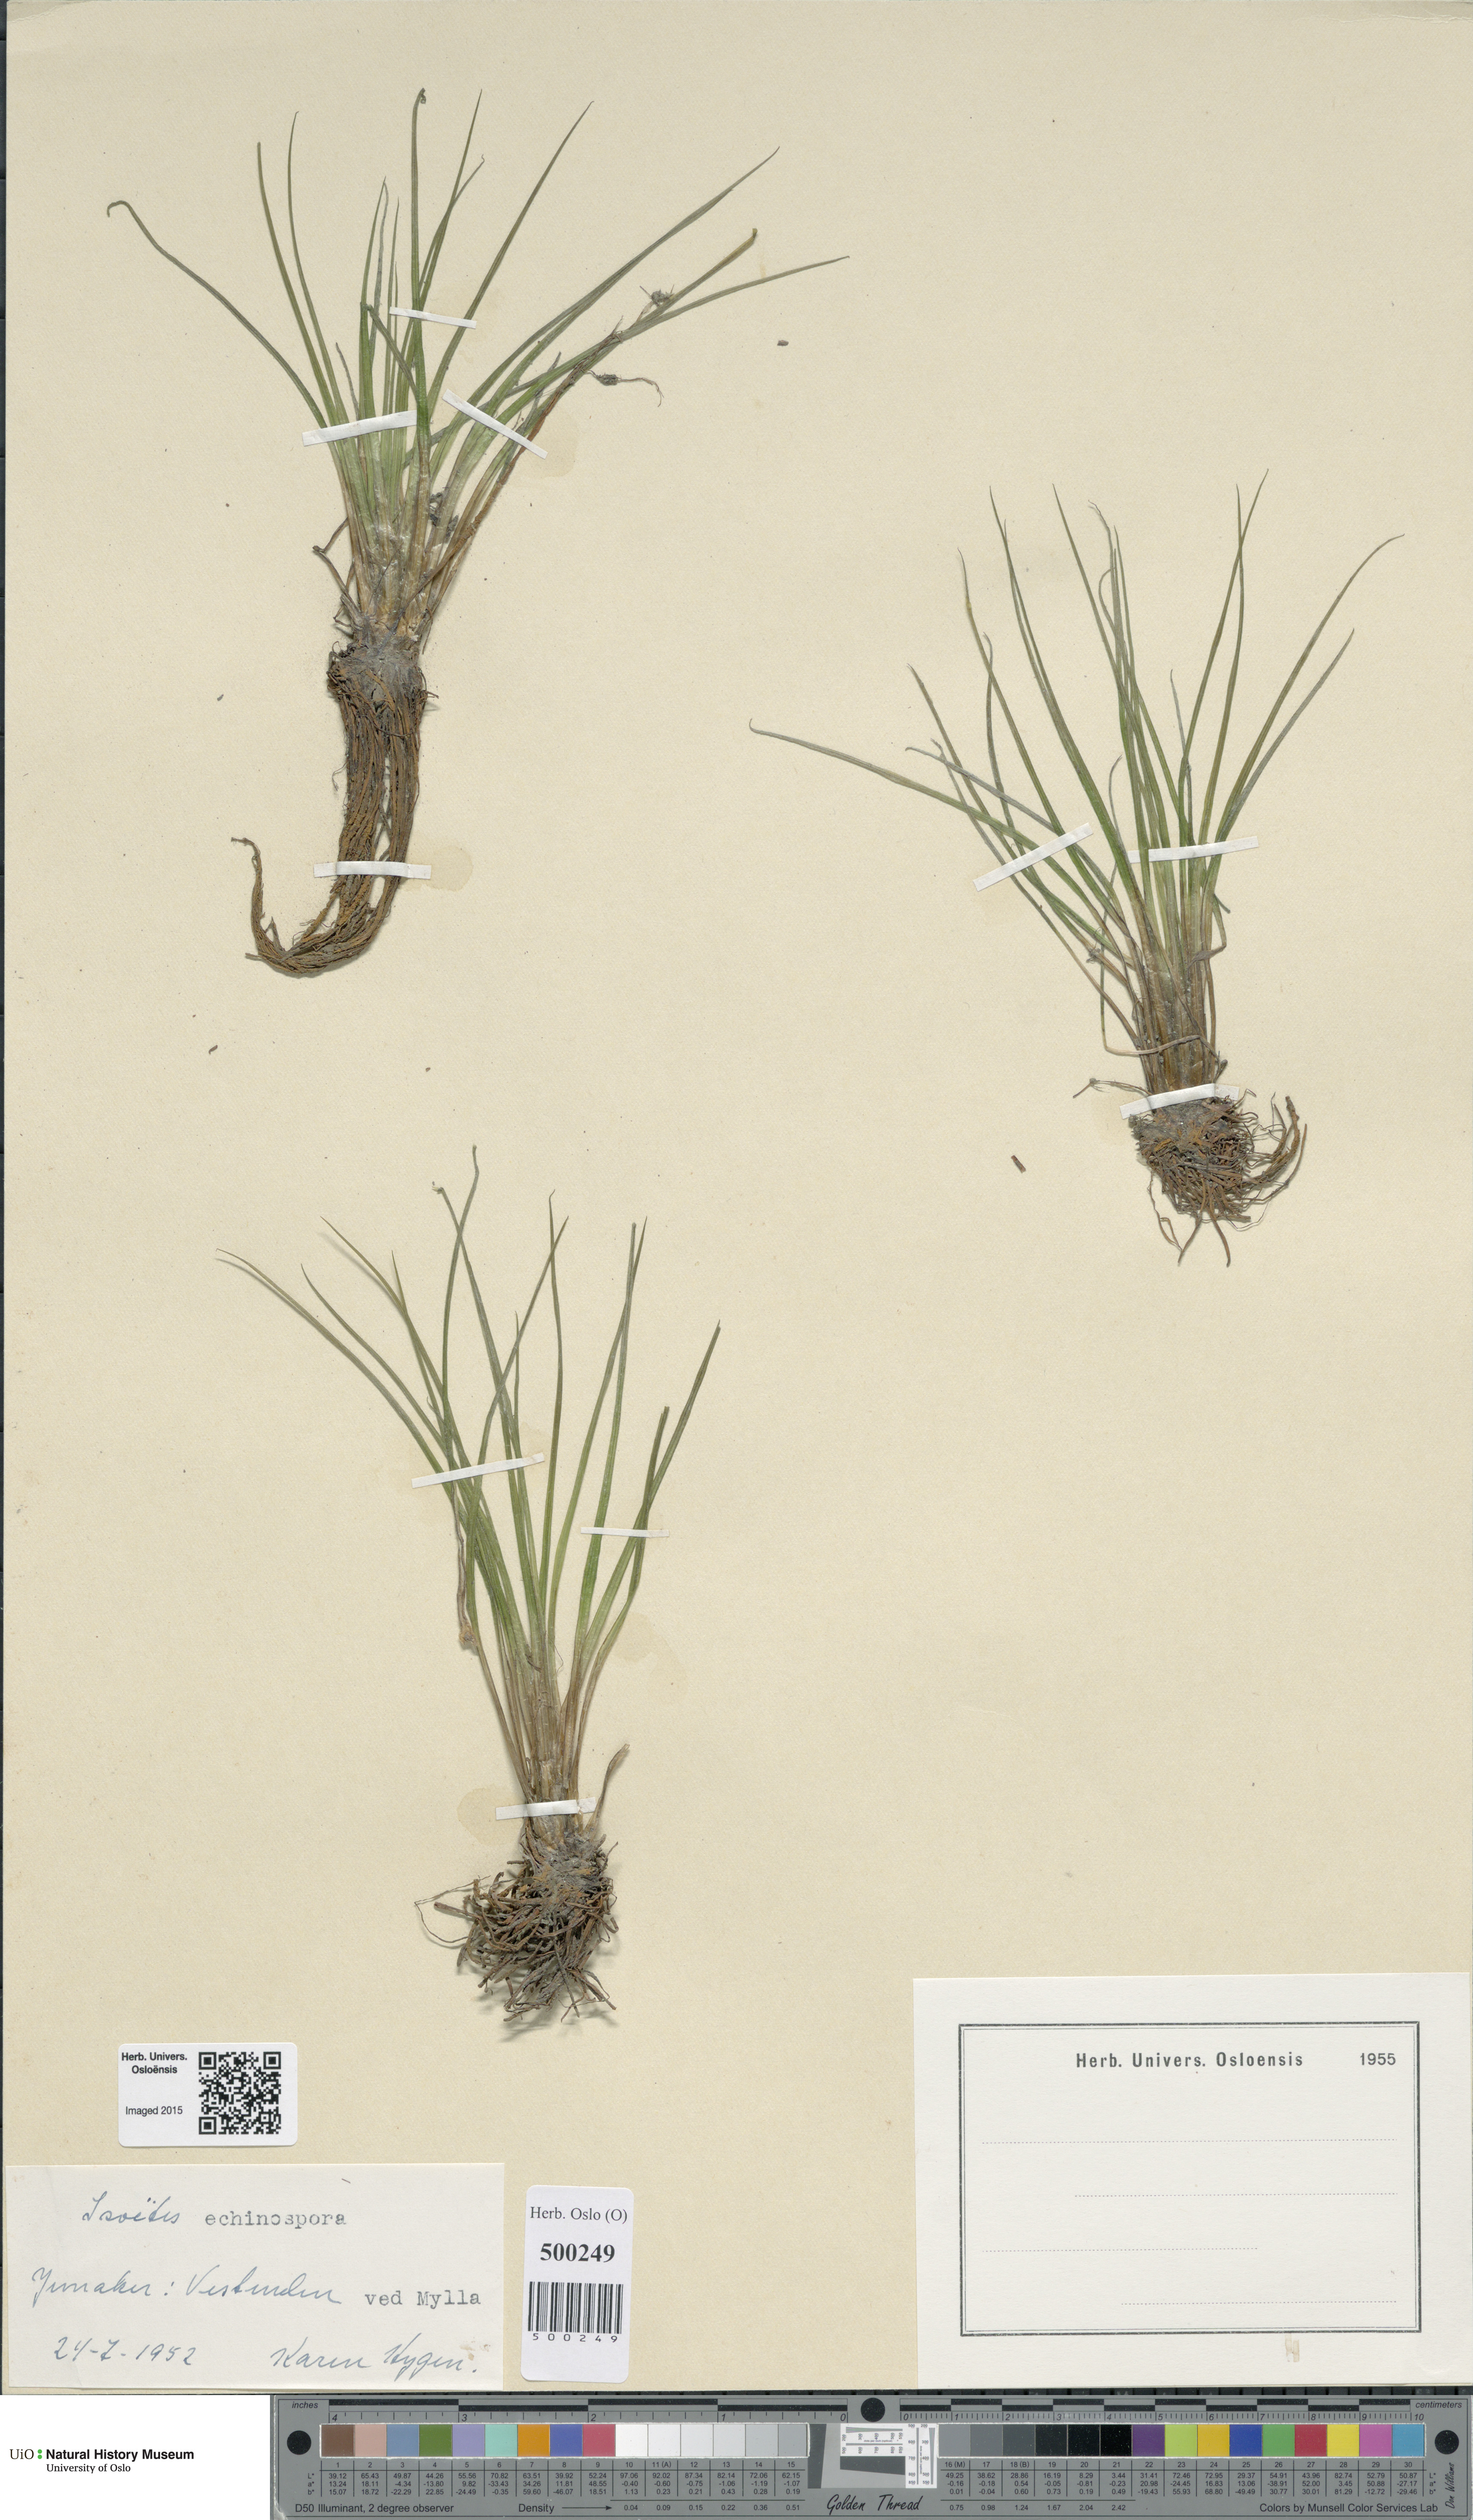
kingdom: Plantae
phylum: Tracheophyta
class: Lycopodiopsida
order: Isoetales
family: Isoetaceae
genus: Isoetes
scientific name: Isoetes echinospora
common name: Spring quillwort
